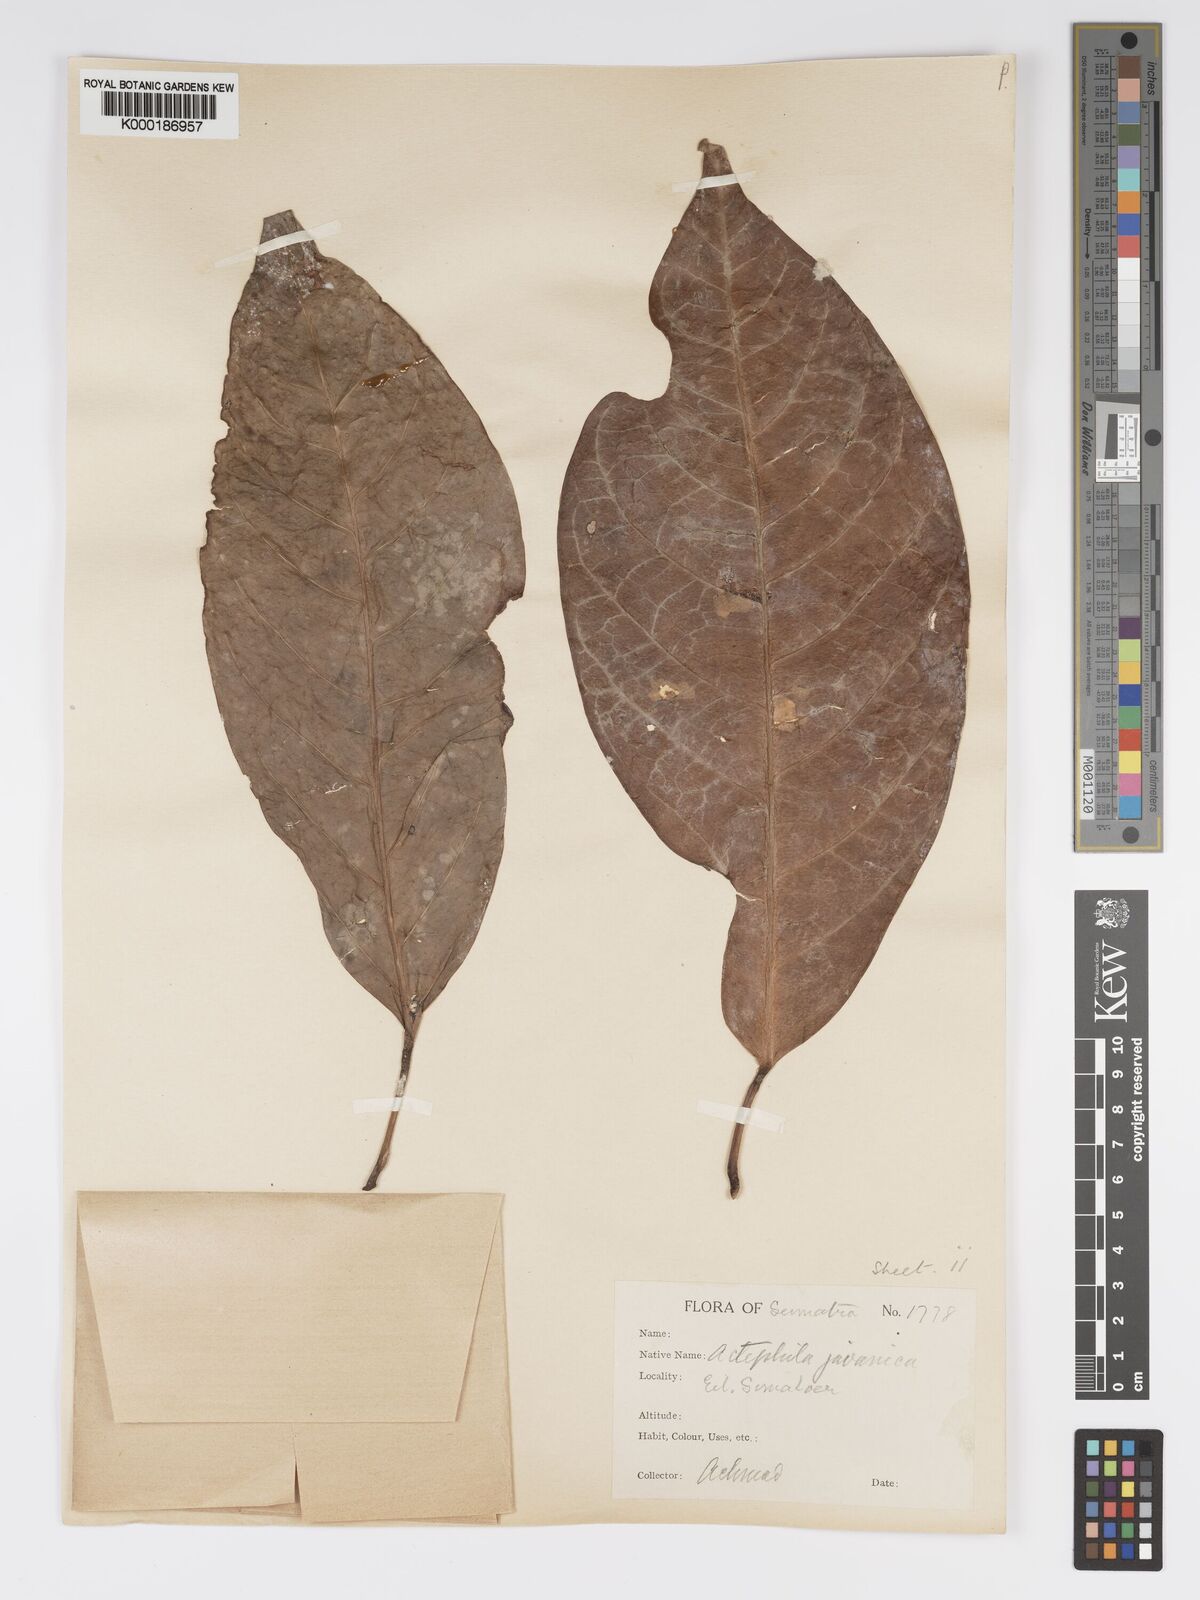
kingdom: Plantae
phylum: Tracheophyta
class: Magnoliopsida
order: Malpighiales
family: Phyllanthaceae
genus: Actephila
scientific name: Actephila
